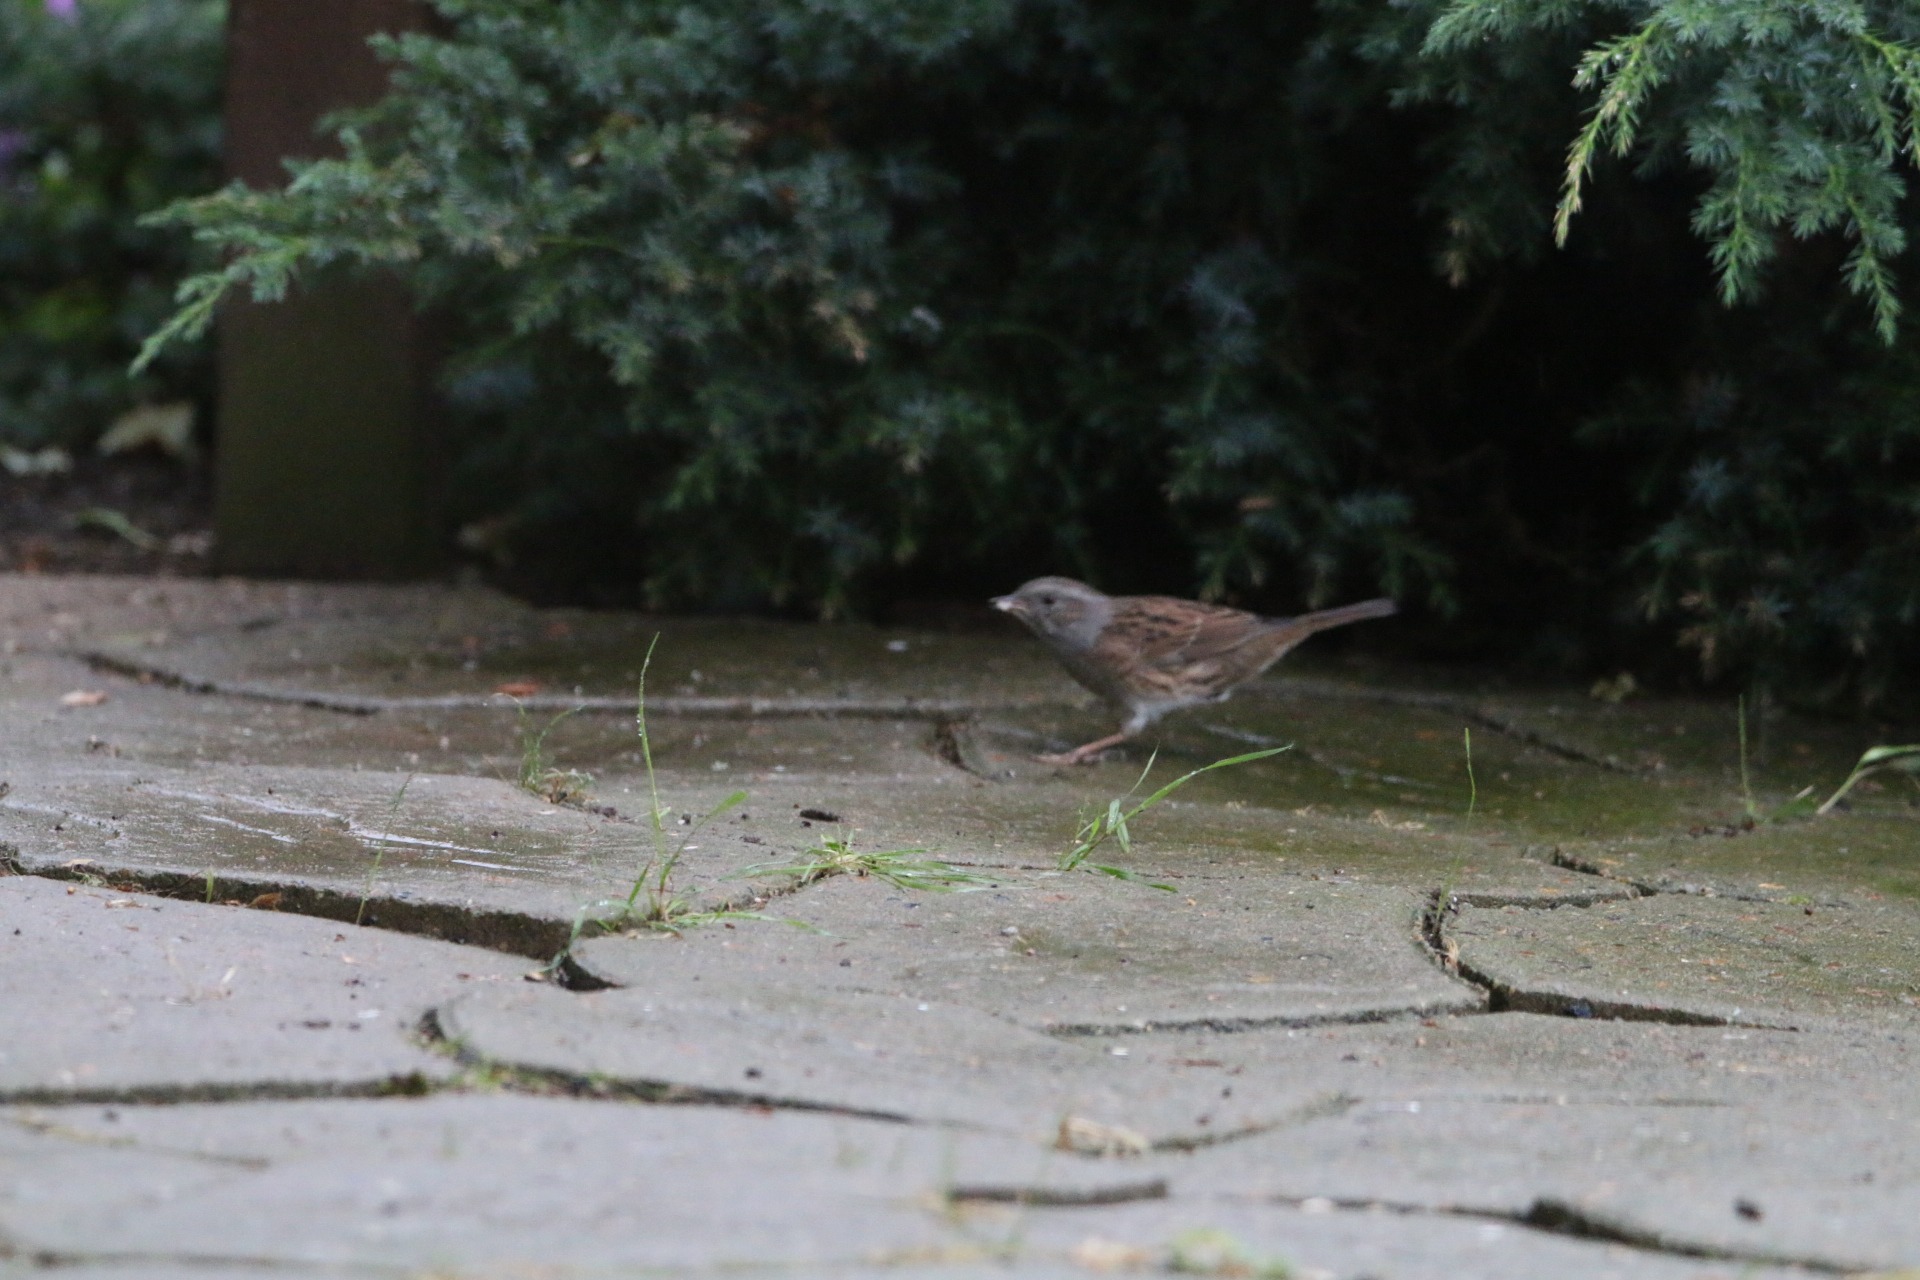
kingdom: Animalia
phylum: Chordata
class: Aves
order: Passeriformes
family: Prunellidae
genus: Prunella
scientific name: Prunella modularis
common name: Jernspurv
